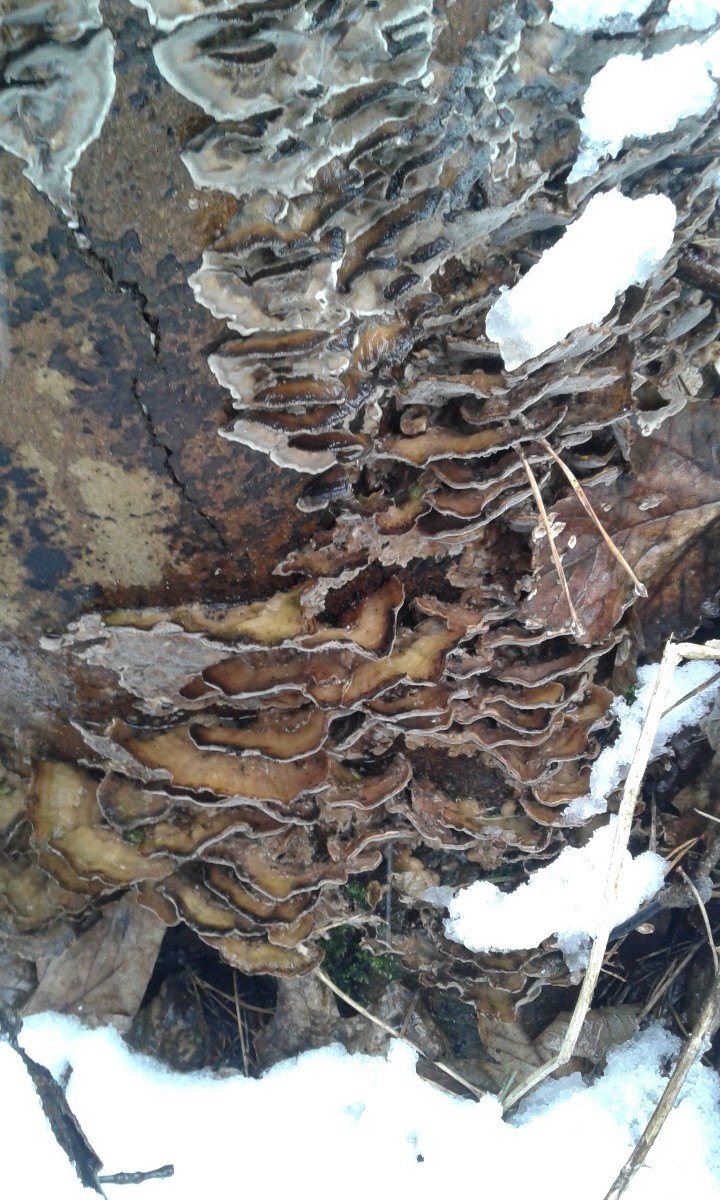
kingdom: Fungi
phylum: Basidiomycota
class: Agaricomycetes
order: Polyporales
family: Phanerochaetaceae
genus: Bjerkandera
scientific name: Bjerkandera adusta
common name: sveden sodporesvamp
